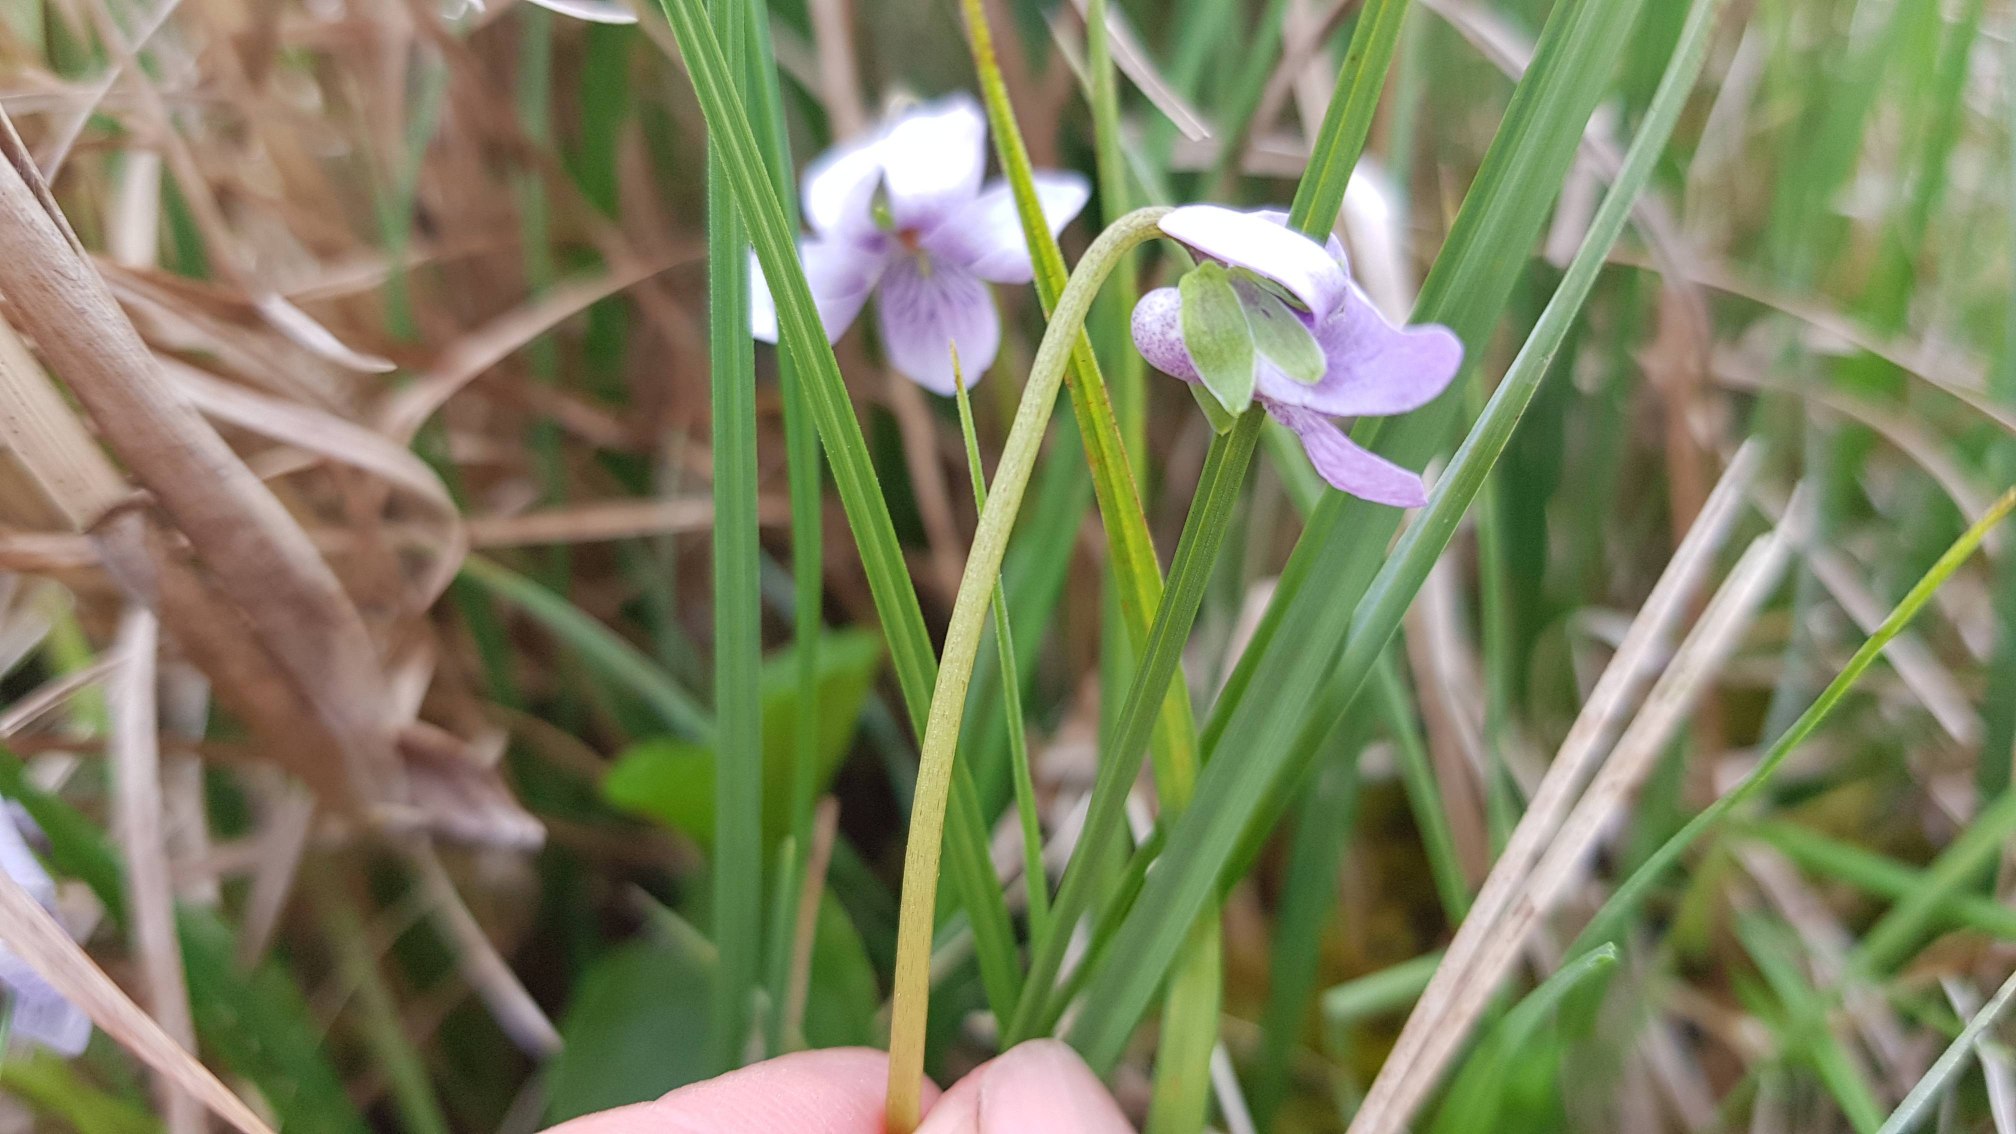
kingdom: Plantae
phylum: Tracheophyta
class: Magnoliopsida
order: Malpighiales
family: Violaceae
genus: Viola
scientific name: Viola palustris
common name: Eng-viol
